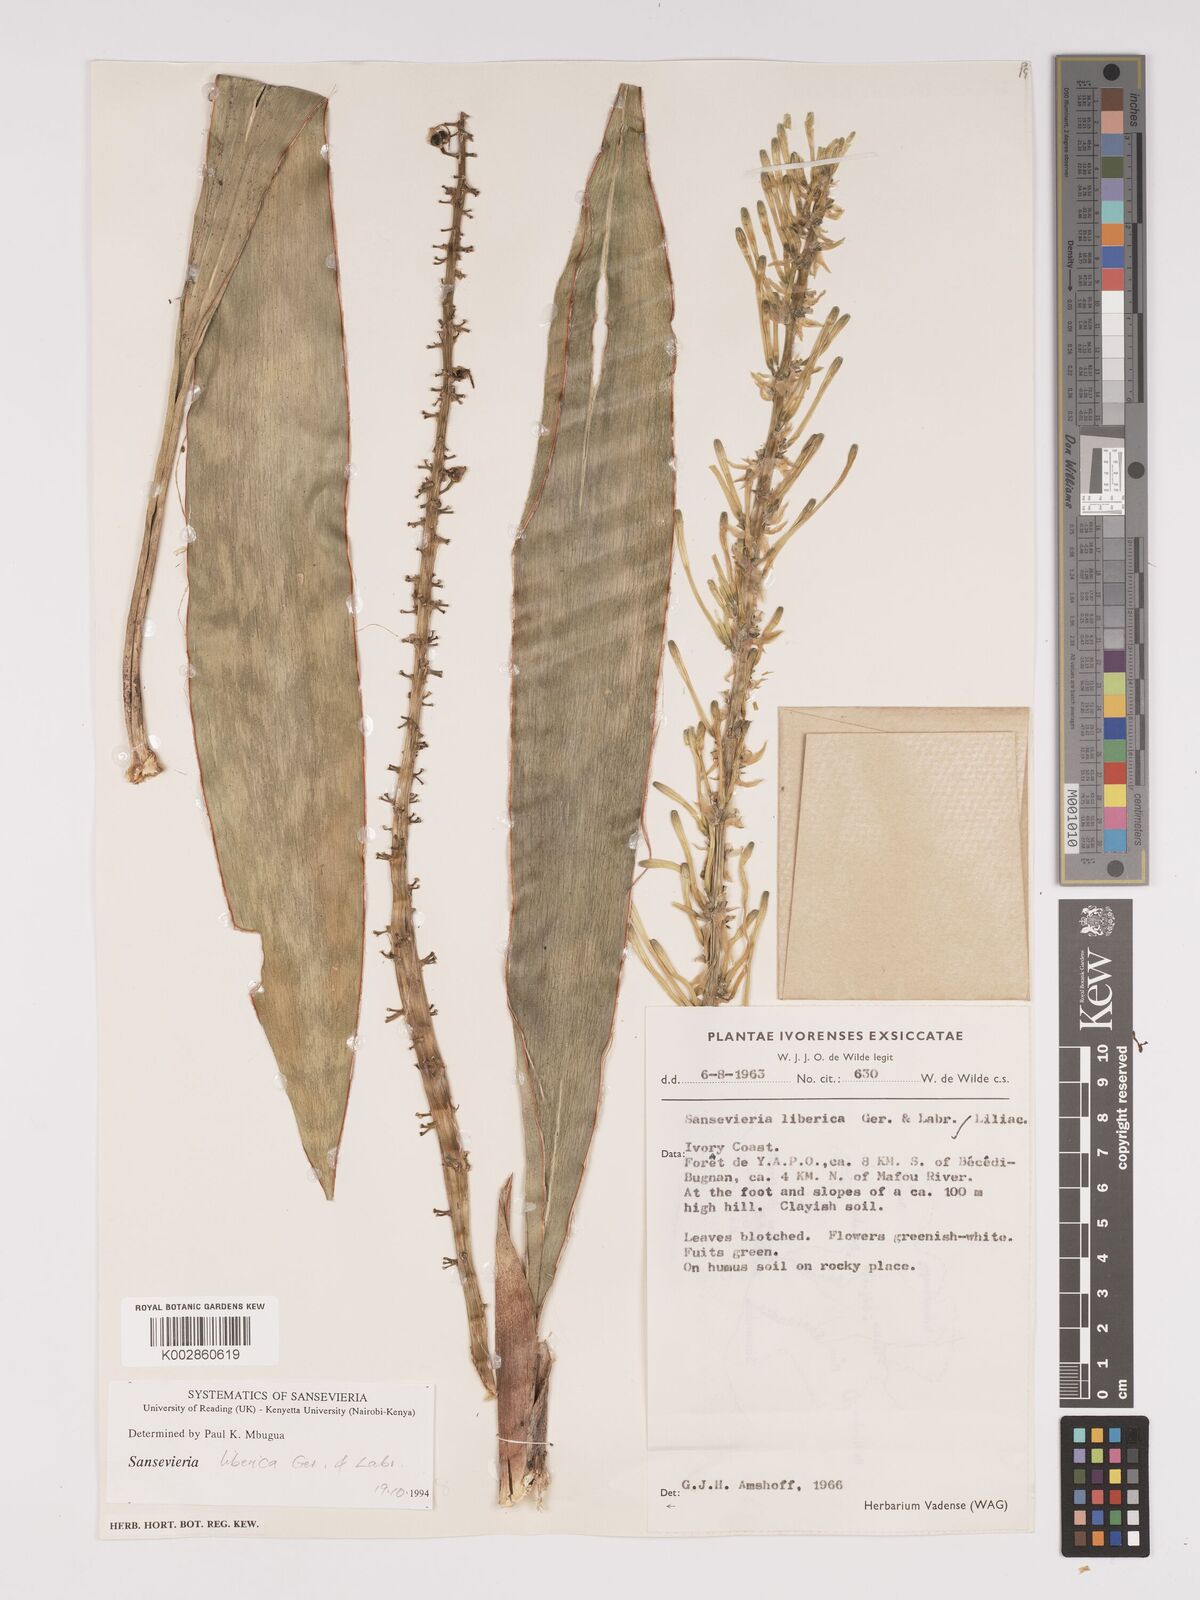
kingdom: Plantae
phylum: Tracheophyta
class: Liliopsida
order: Asparagales
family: Asparagaceae
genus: Dracaena
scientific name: Dracaena liberica
